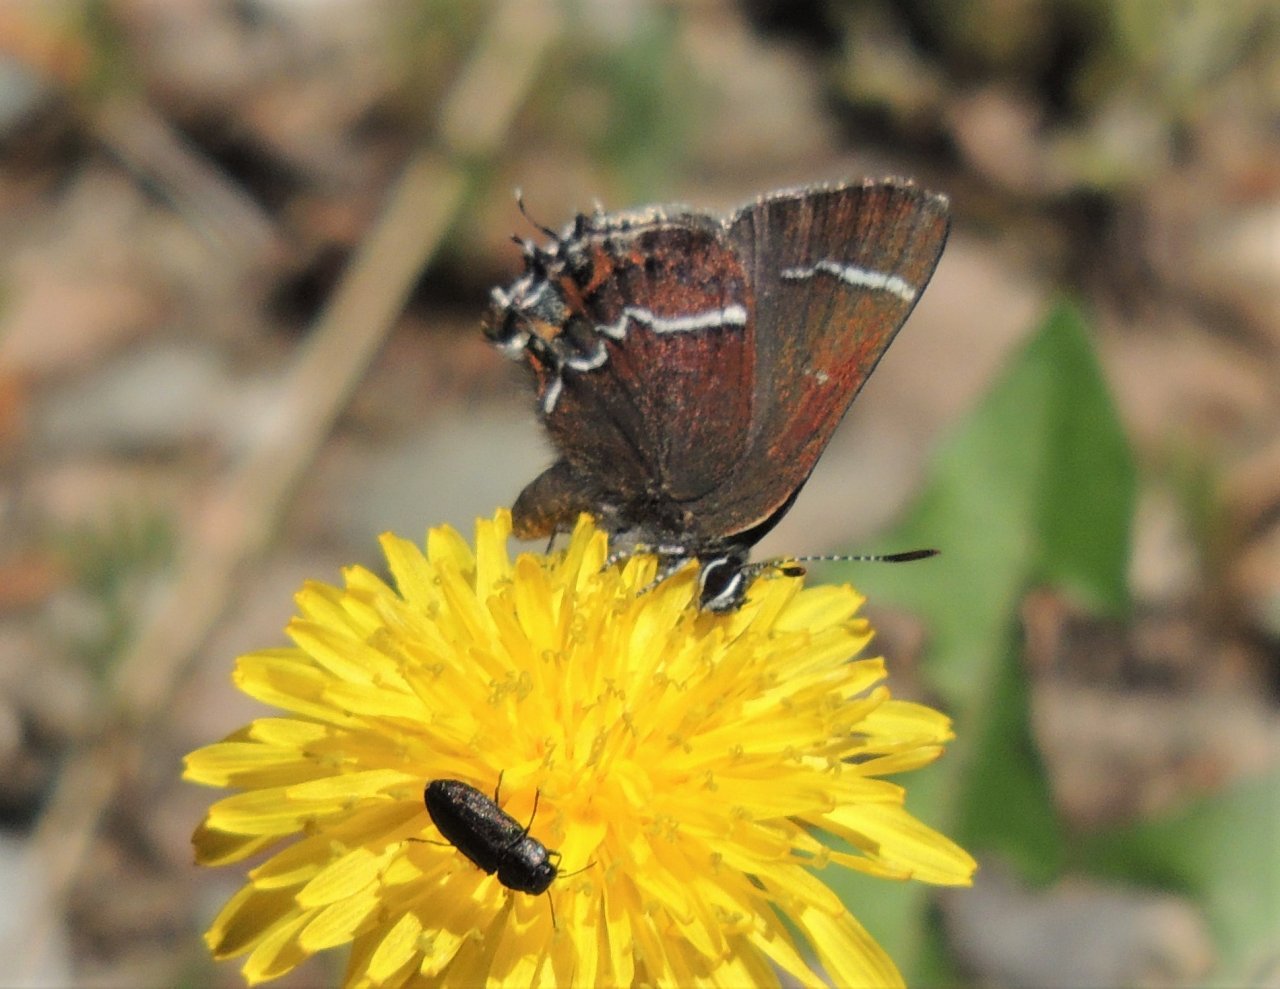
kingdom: Animalia
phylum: Arthropoda
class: Insecta
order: Lepidoptera
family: Lycaenidae
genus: Strymon
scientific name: Strymon saepium
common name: Hedgerow Hairstreak
